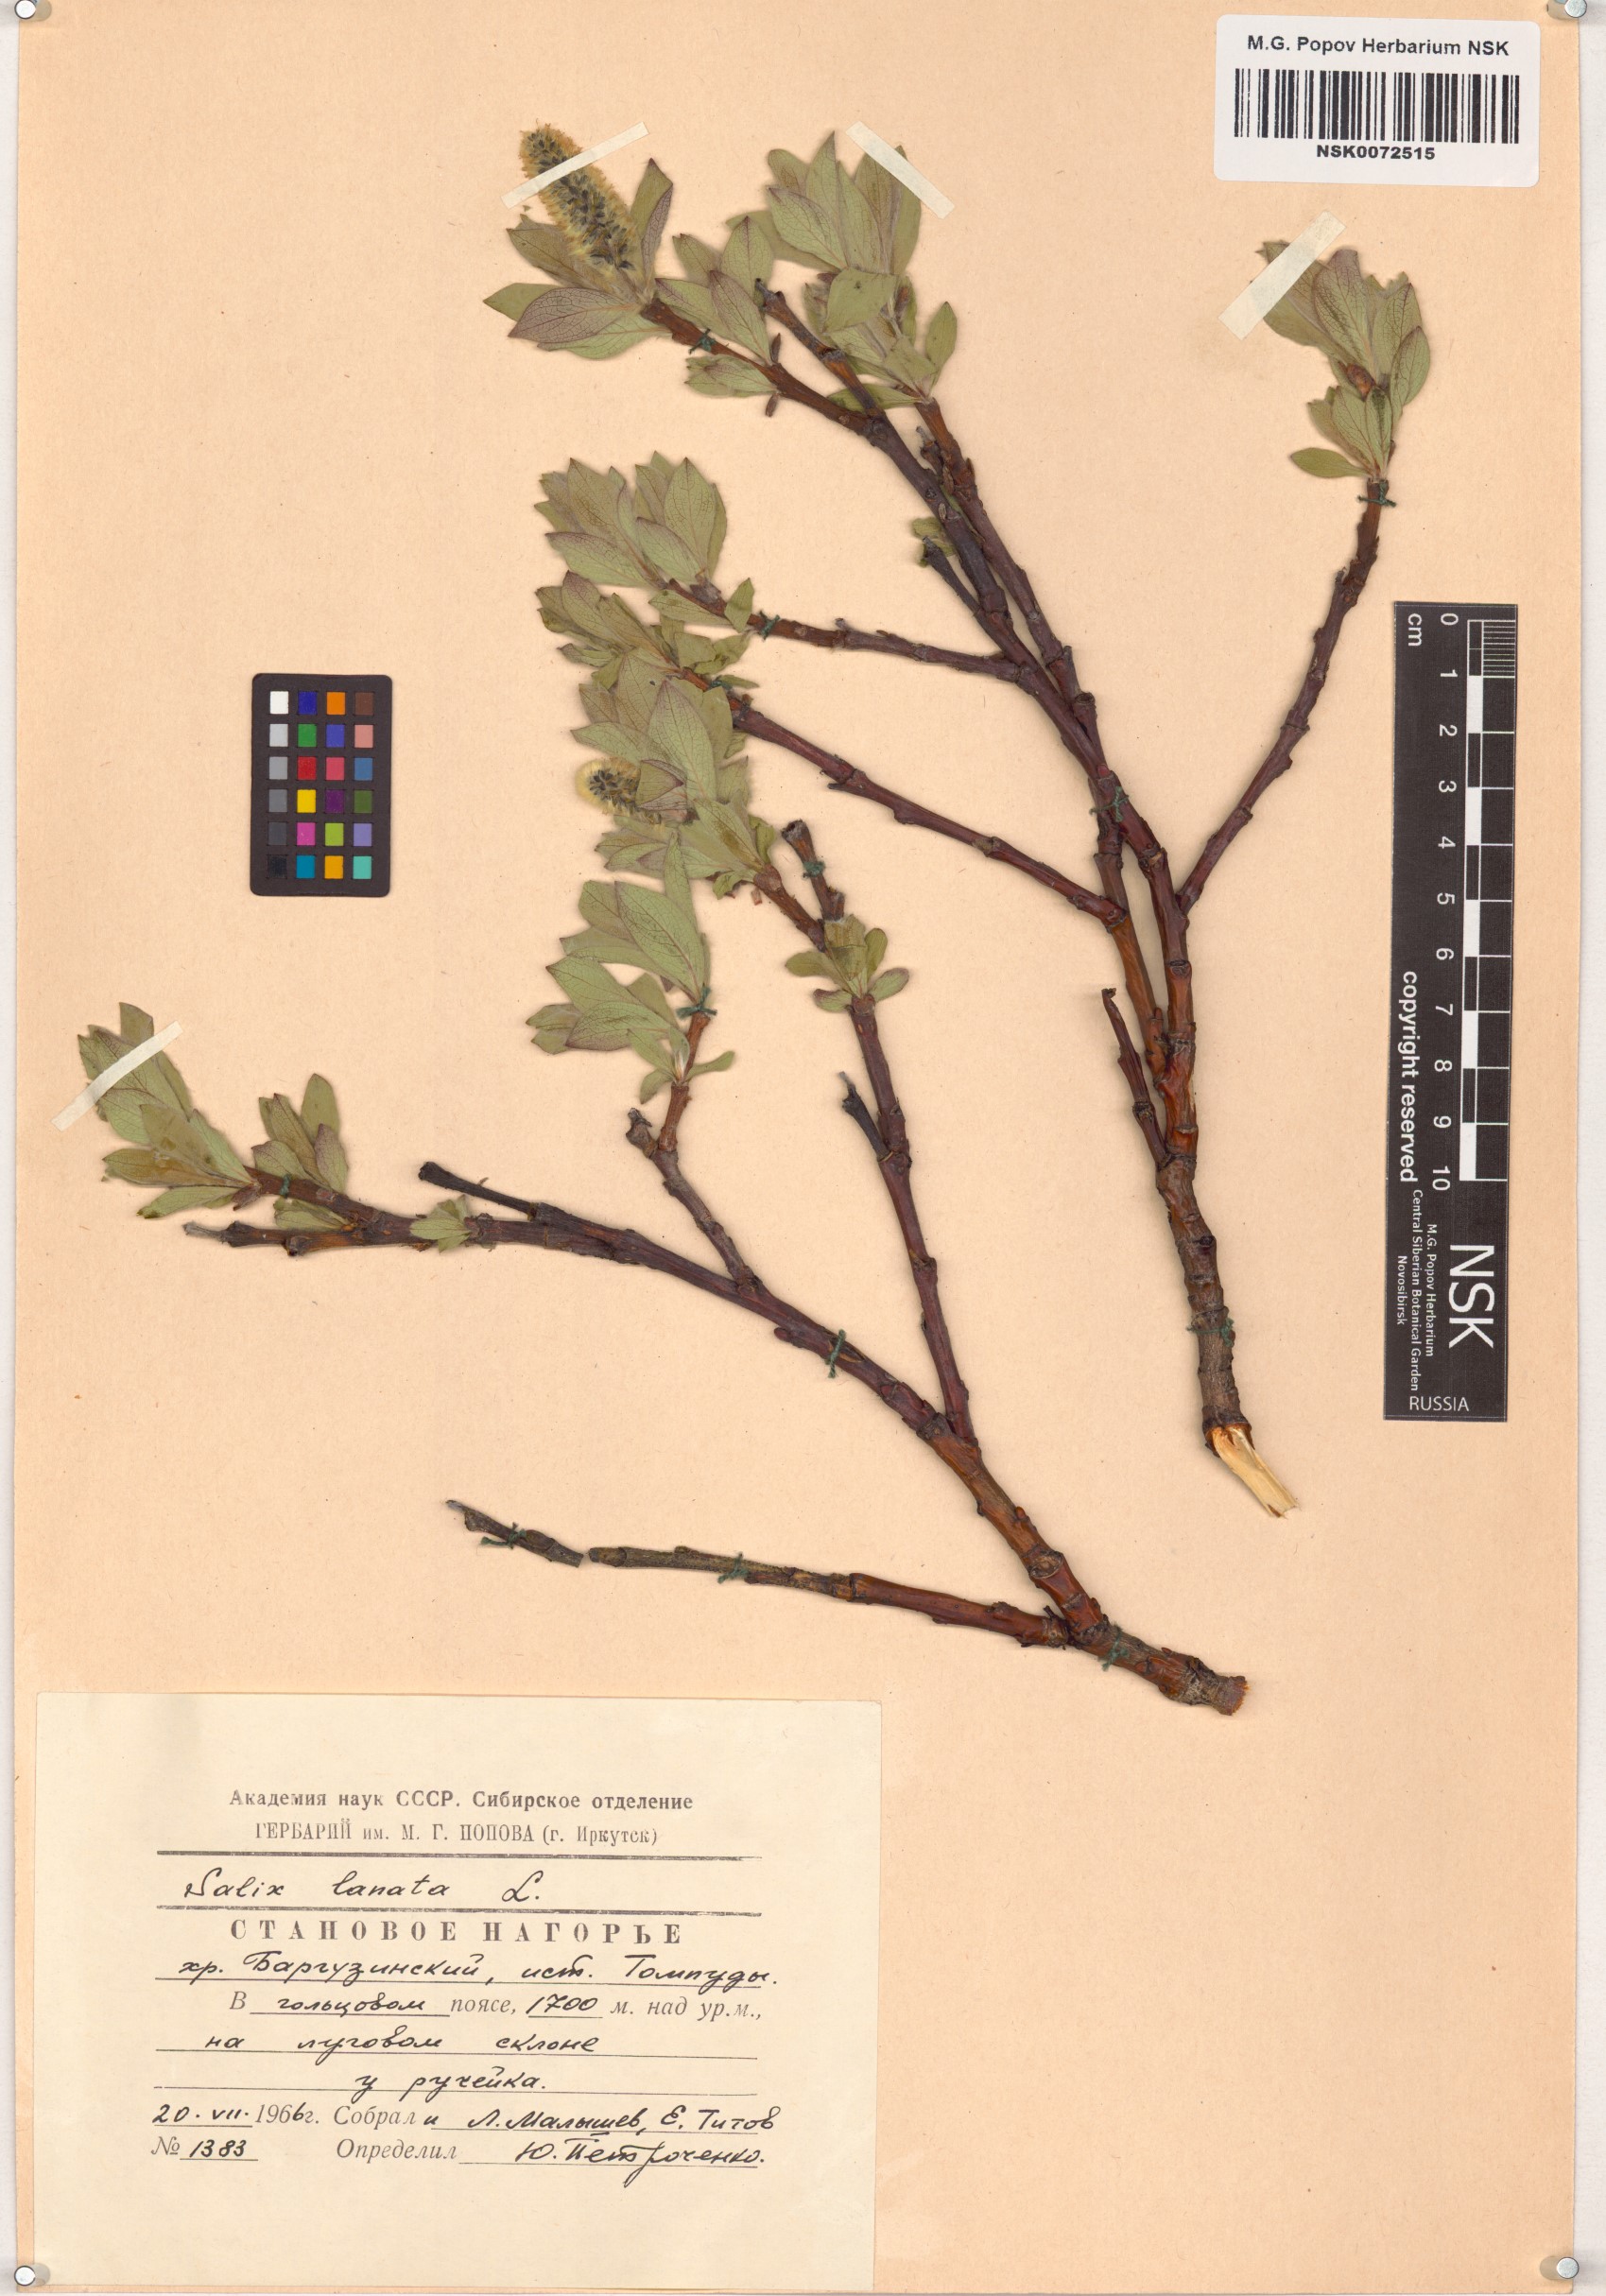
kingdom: Plantae
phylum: Tracheophyta
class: Magnoliopsida
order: Malpighiales
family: Salicaceae
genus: Salix
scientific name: Salix lanata
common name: Woolly willow
